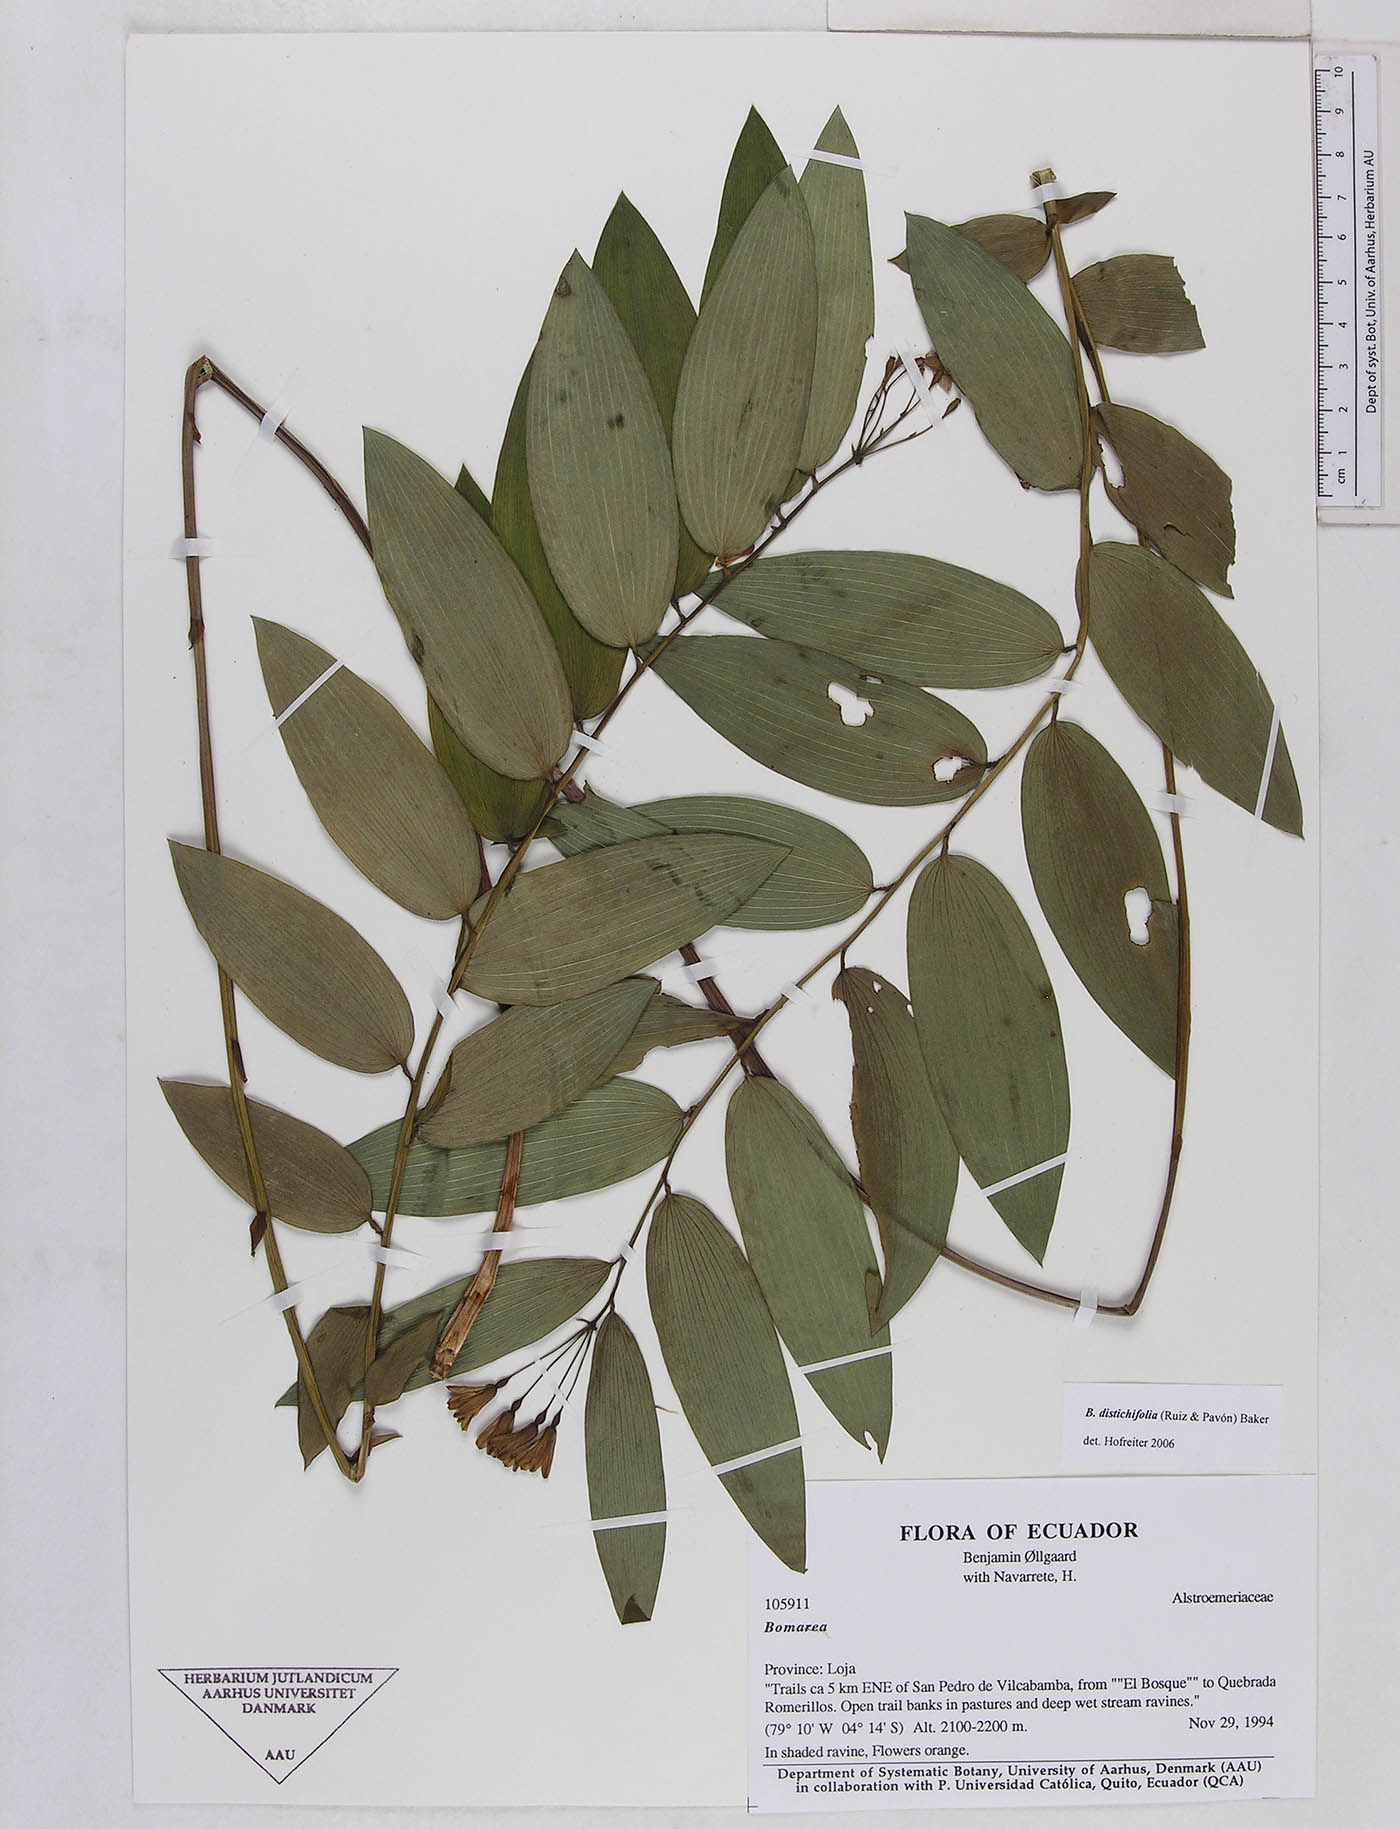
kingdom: Plantae
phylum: Tracheophyta
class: Liliopsida
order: Liliales
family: Alstroemeriaceae
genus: Bomarea
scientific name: Bomarea distichifolia
